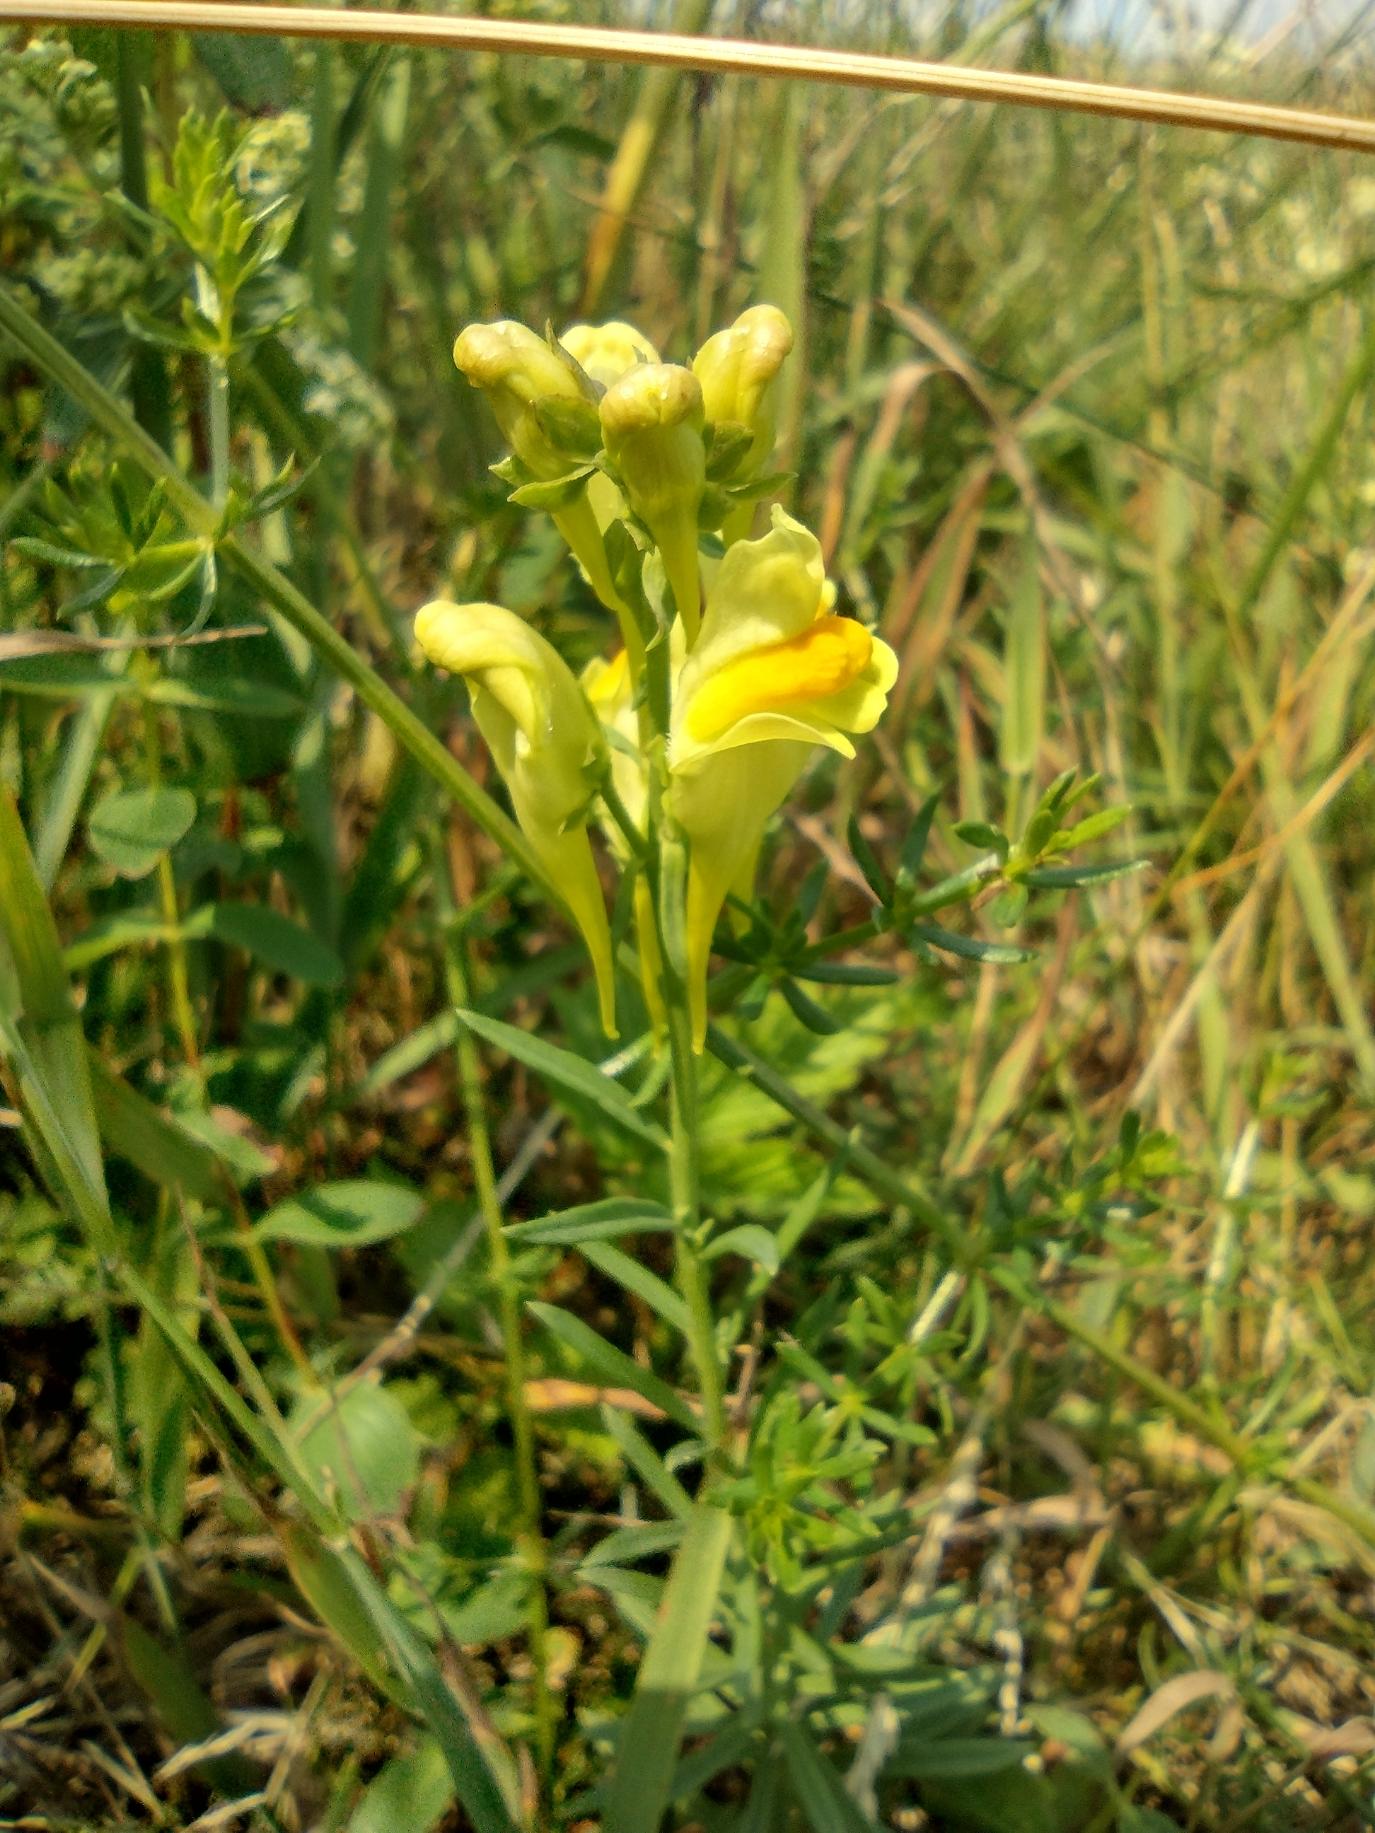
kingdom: Plantae
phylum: Tracheophyta
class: Magnoliopsida
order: Lamiales
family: Plantaginaceae
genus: Linaria
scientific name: Linaria vulgaris
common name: Almindelig torskemund
